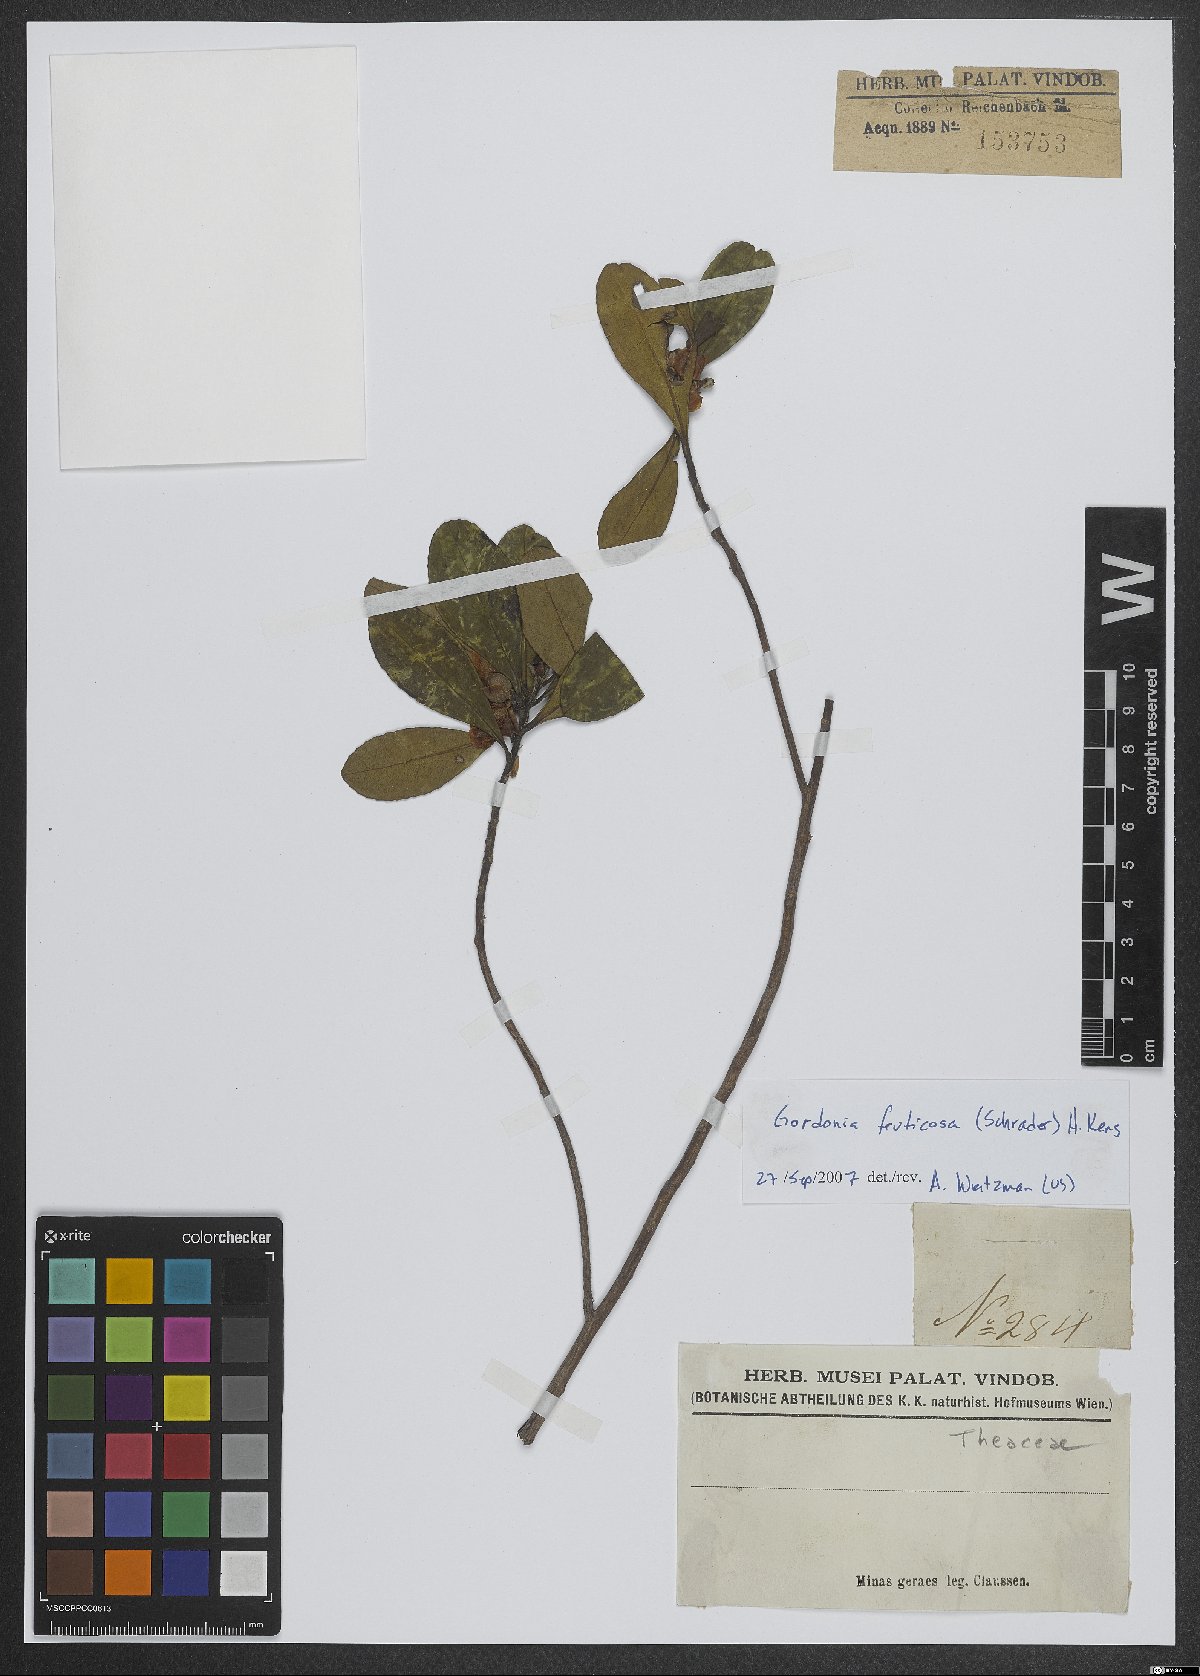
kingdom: Plantae
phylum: Tracheophyta
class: Magnoliopsida
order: Ericales
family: Theaceae
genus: Gordonia
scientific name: Gordonia fruticosa
